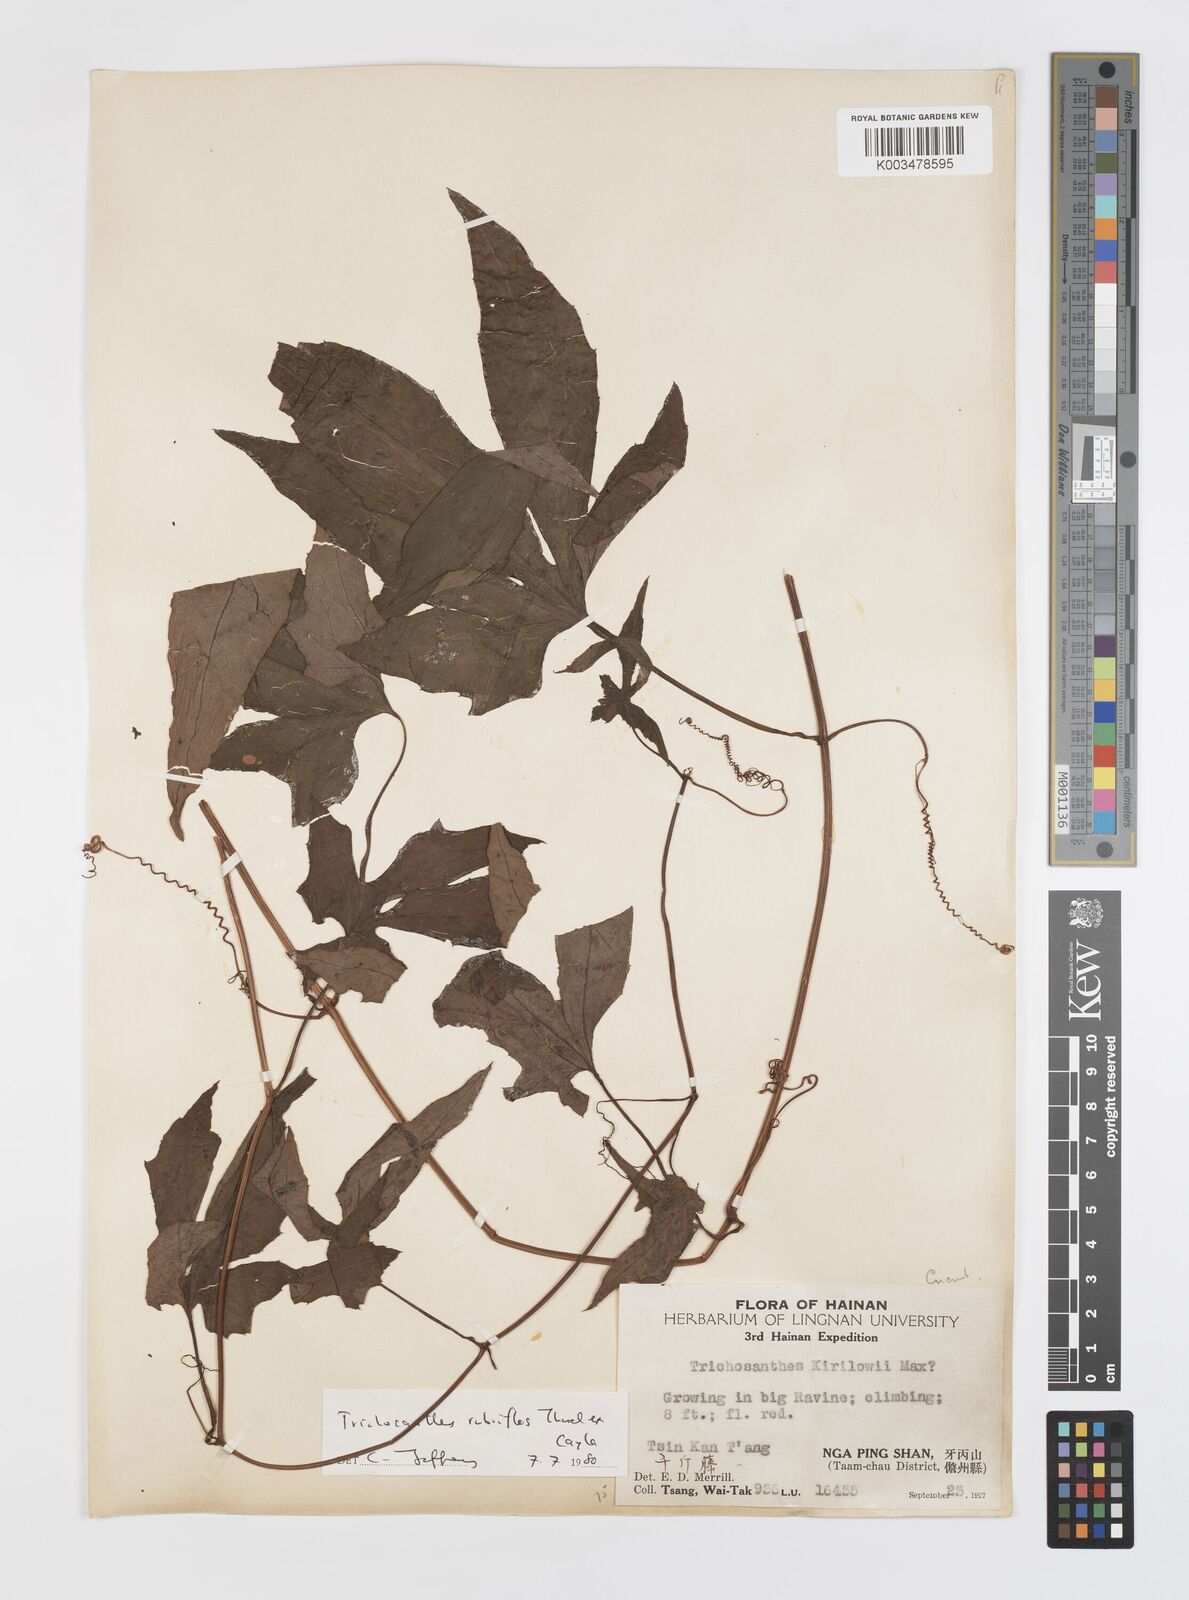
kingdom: Plantae
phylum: Tracheophyta
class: Magnoliopsida
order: Cucurbitales
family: Cucurbitaceae
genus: Trichosanthes
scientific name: Trichosanthes rubriflos
